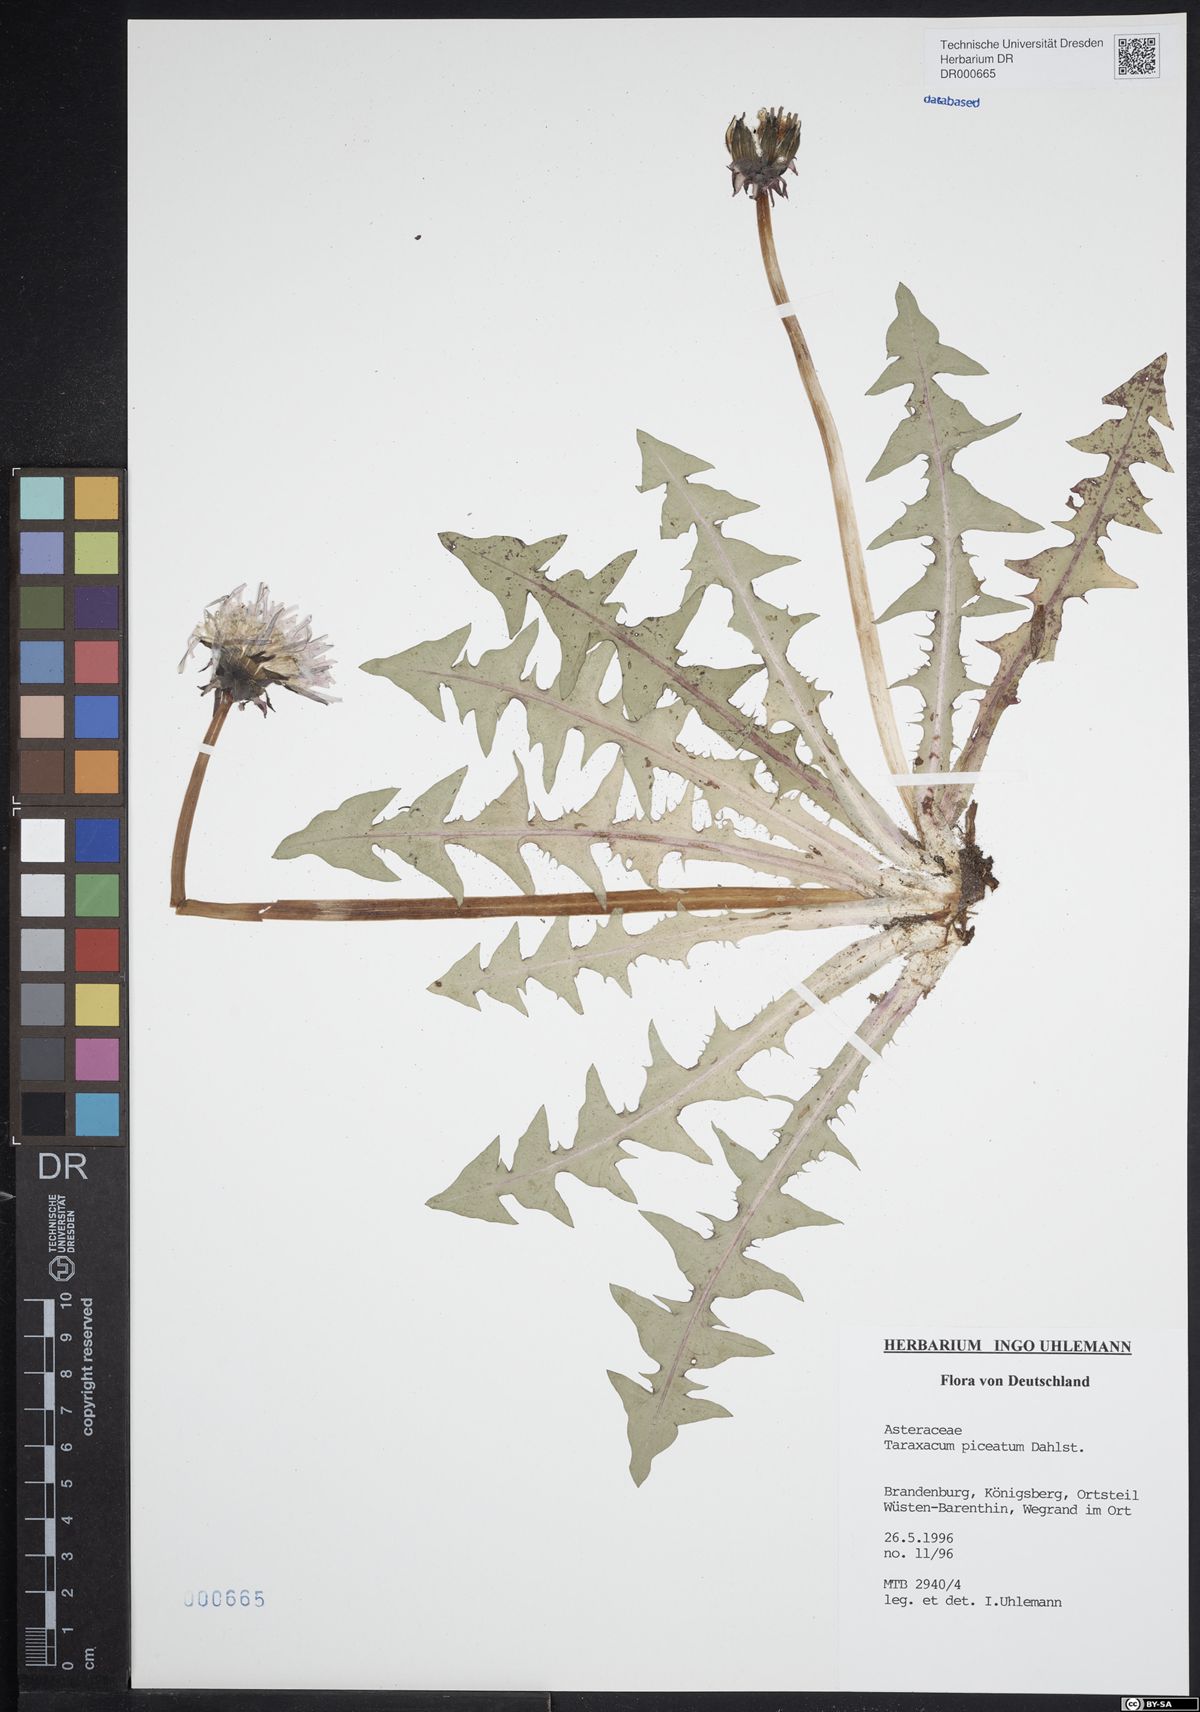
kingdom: Plantae
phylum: Tracheophyta
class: Magnoliopsida
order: Asterales
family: Asteraceae
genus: Taraxacum
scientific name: Taraxacum piceatum
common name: Leaden-bracted dandelion
